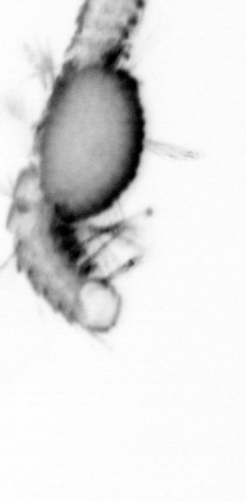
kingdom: Animalia
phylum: Annelida
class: Polychaeta
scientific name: Polychaeta
